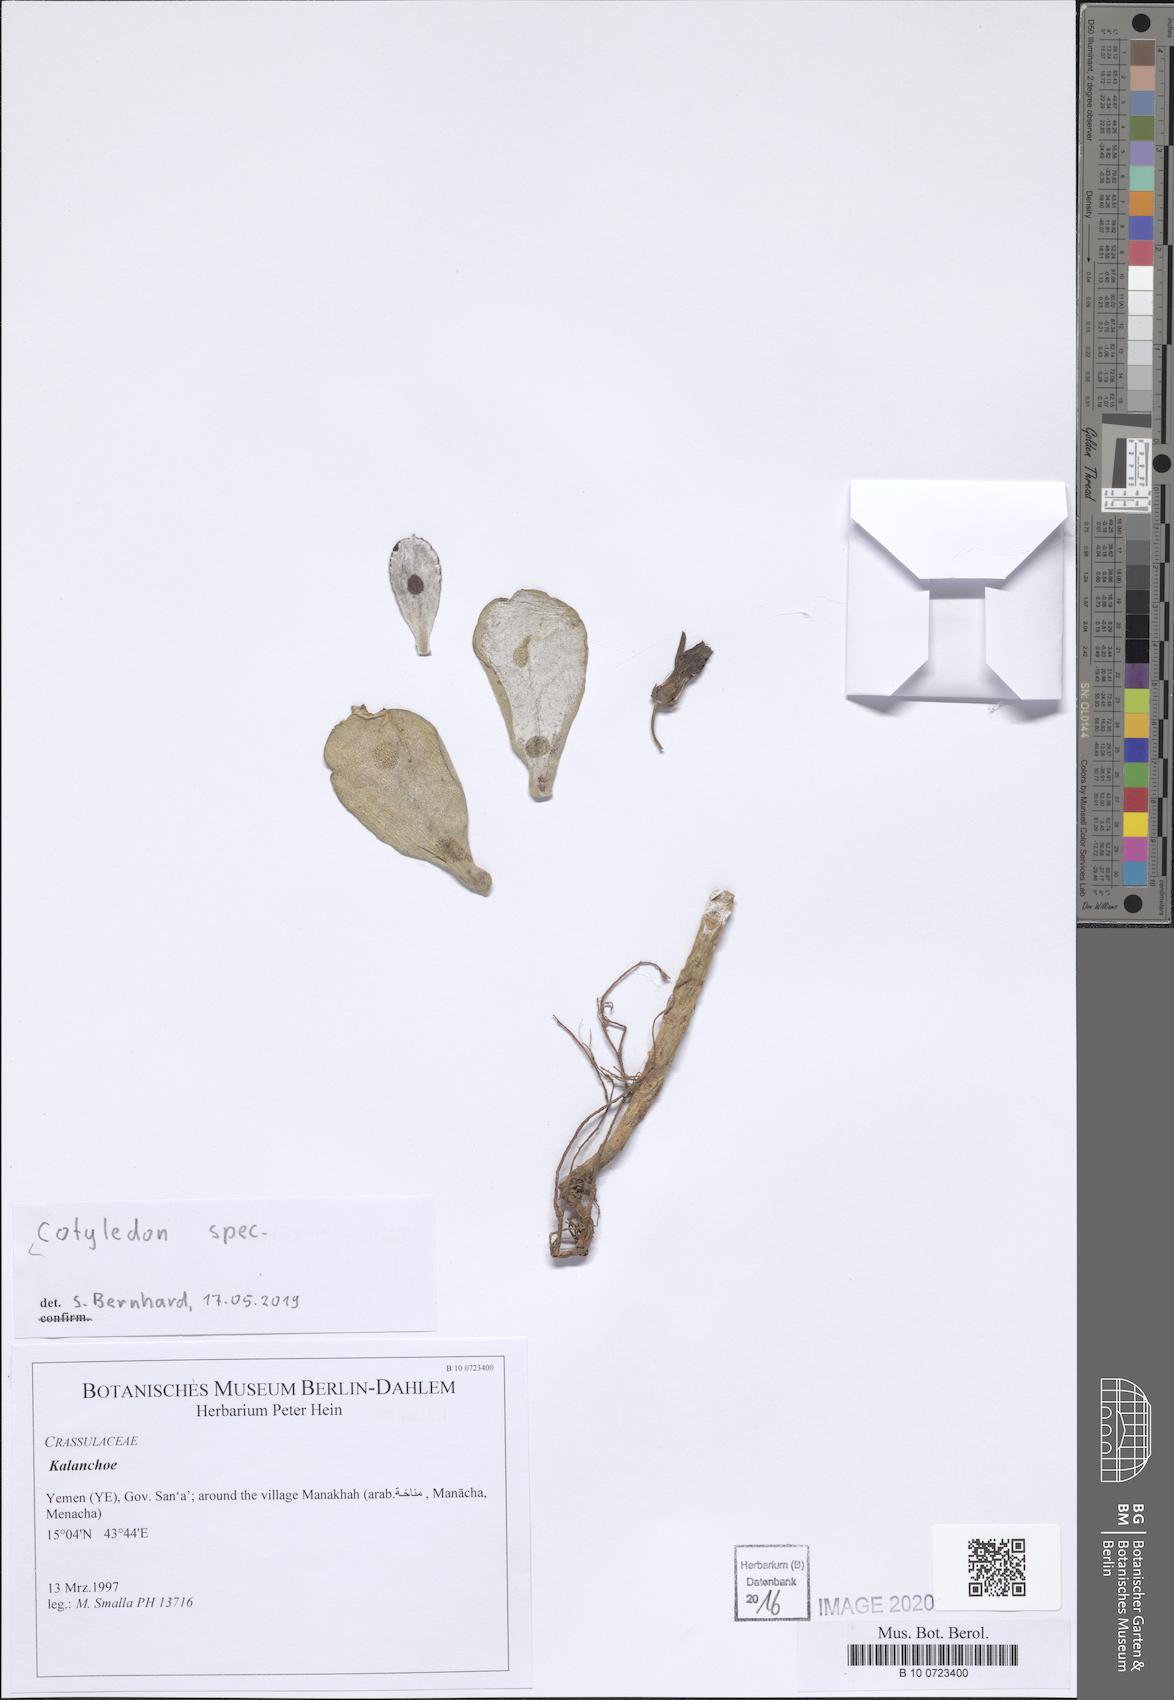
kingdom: Plantae
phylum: Tracheophyta
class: Magnoliopsida
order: Saxifragales
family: Crassulaceae
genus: Cotyledon
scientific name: Cotyledon
